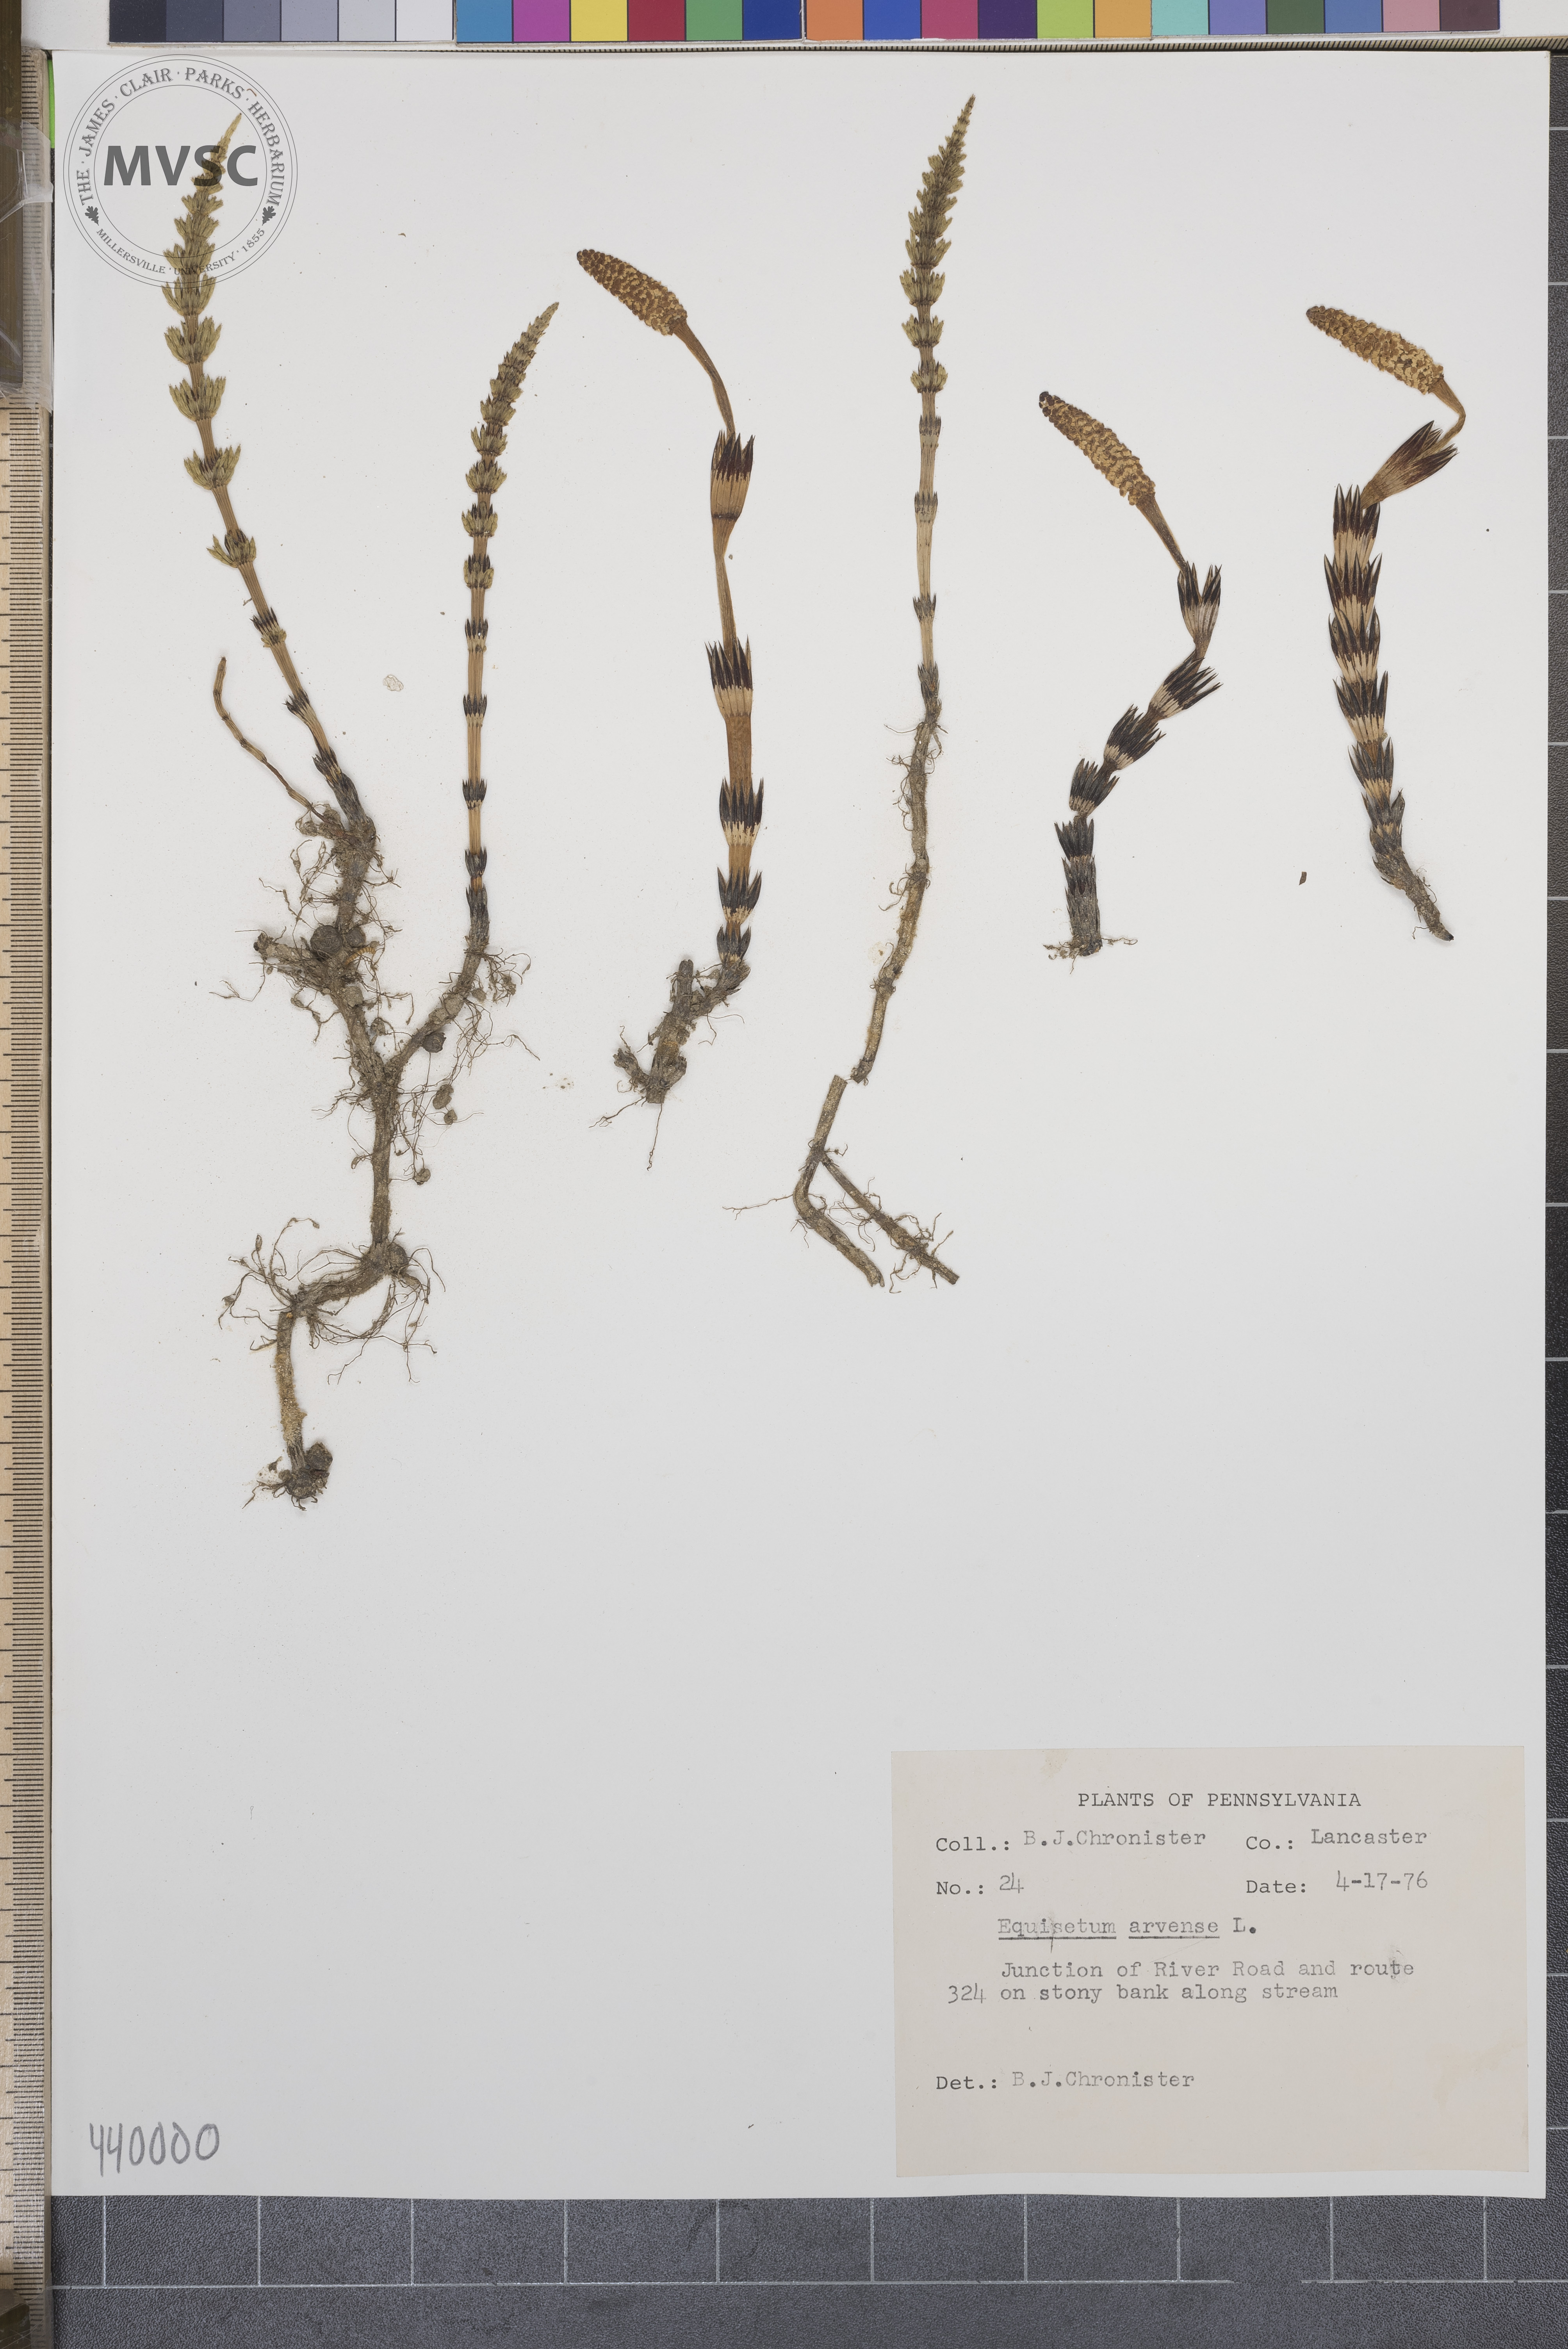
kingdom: Plantae
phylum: Tracheophyta
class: Polypodiopsida
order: Equisetales
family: Equisetaceae
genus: Equisetum
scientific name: Equisetum arvense
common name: Field horsetail
